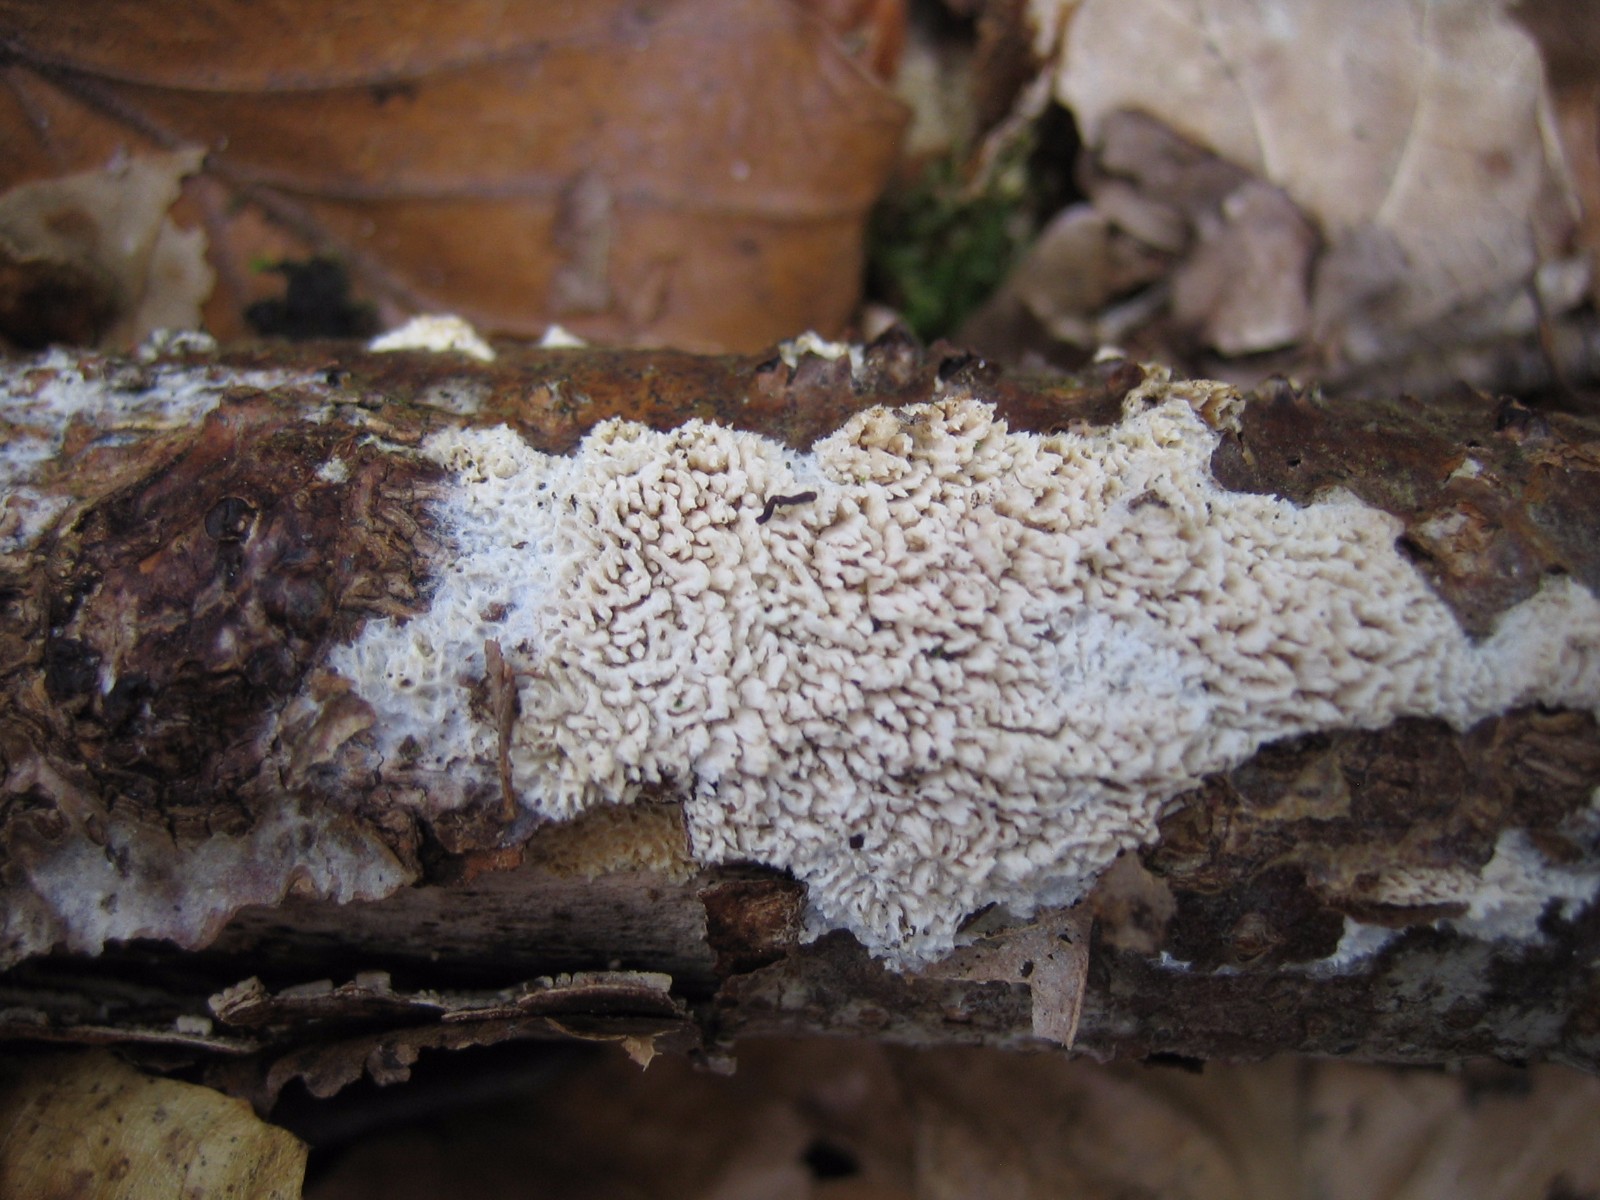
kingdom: Fungi
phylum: Basidiomycota
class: Agaricomycetes
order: Hymenochaetales
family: Schizoporaceae
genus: Xylodon
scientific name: Xylodon radula
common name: grovtandet kalkskind
